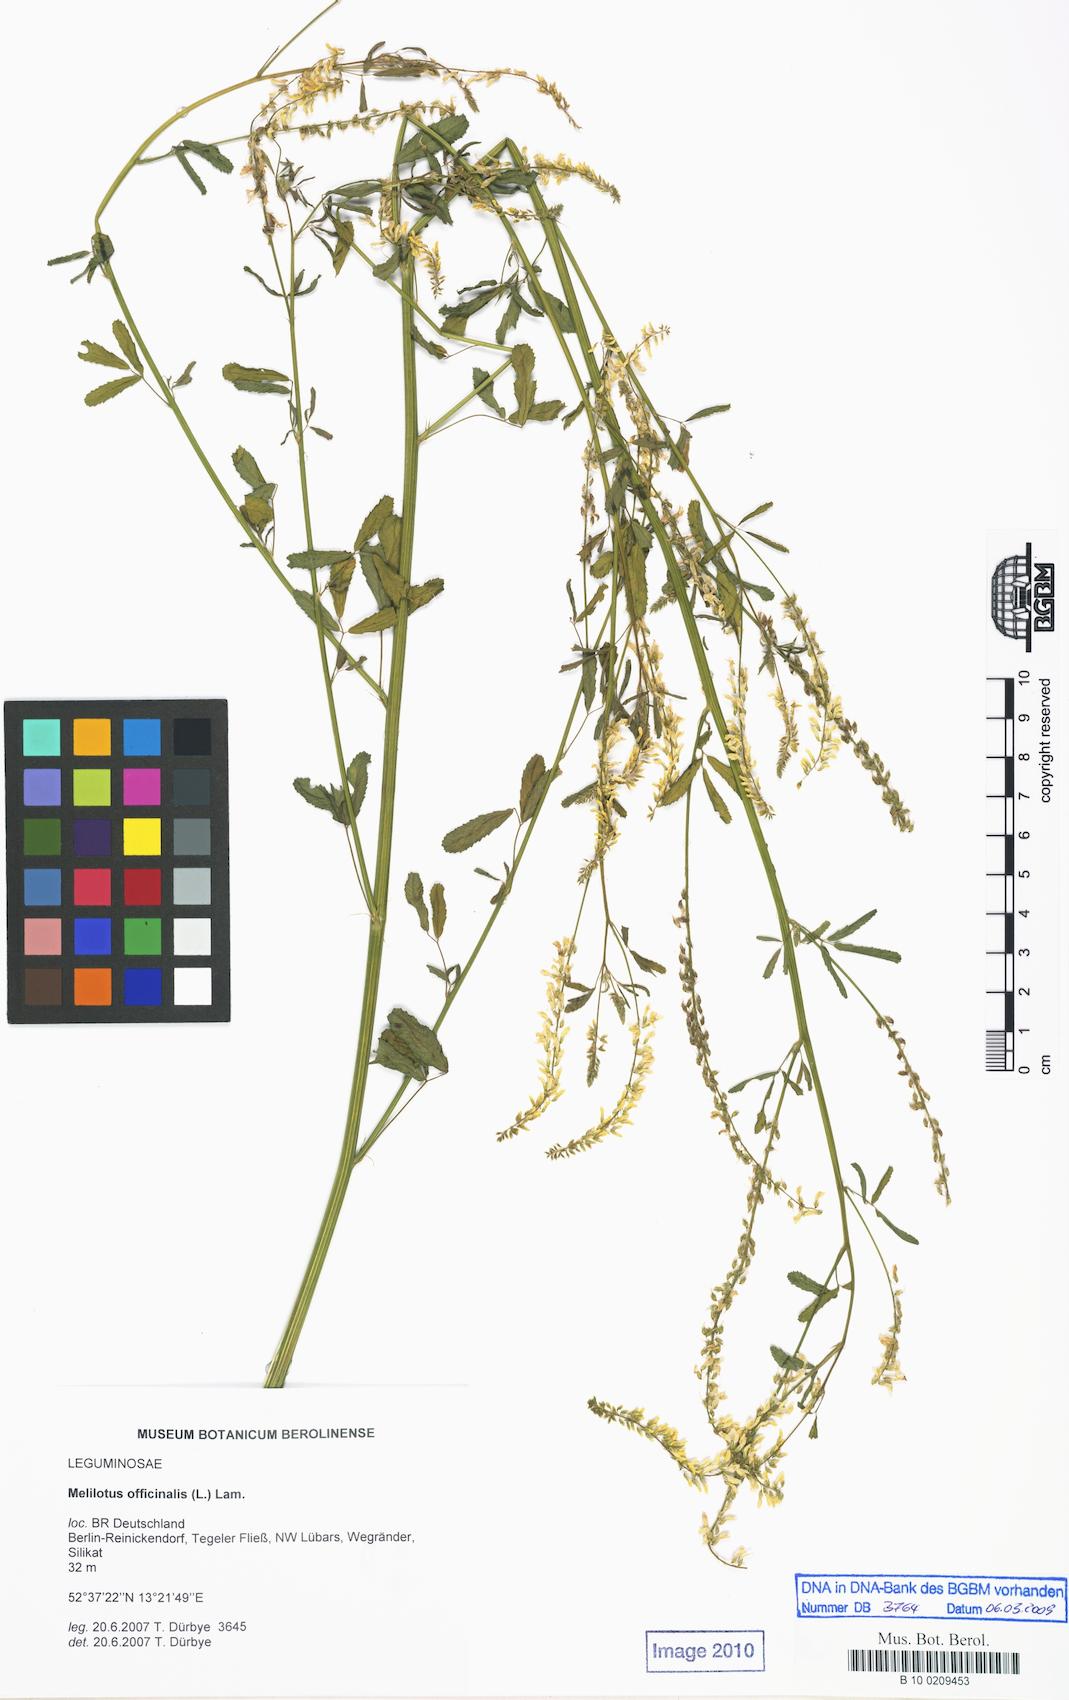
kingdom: Plantae
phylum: Tracheophyta
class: Magnoliopsida
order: Fabales
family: Fabaceae
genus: Melilotus
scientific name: Melilotus officinalis
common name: Sweetclover
